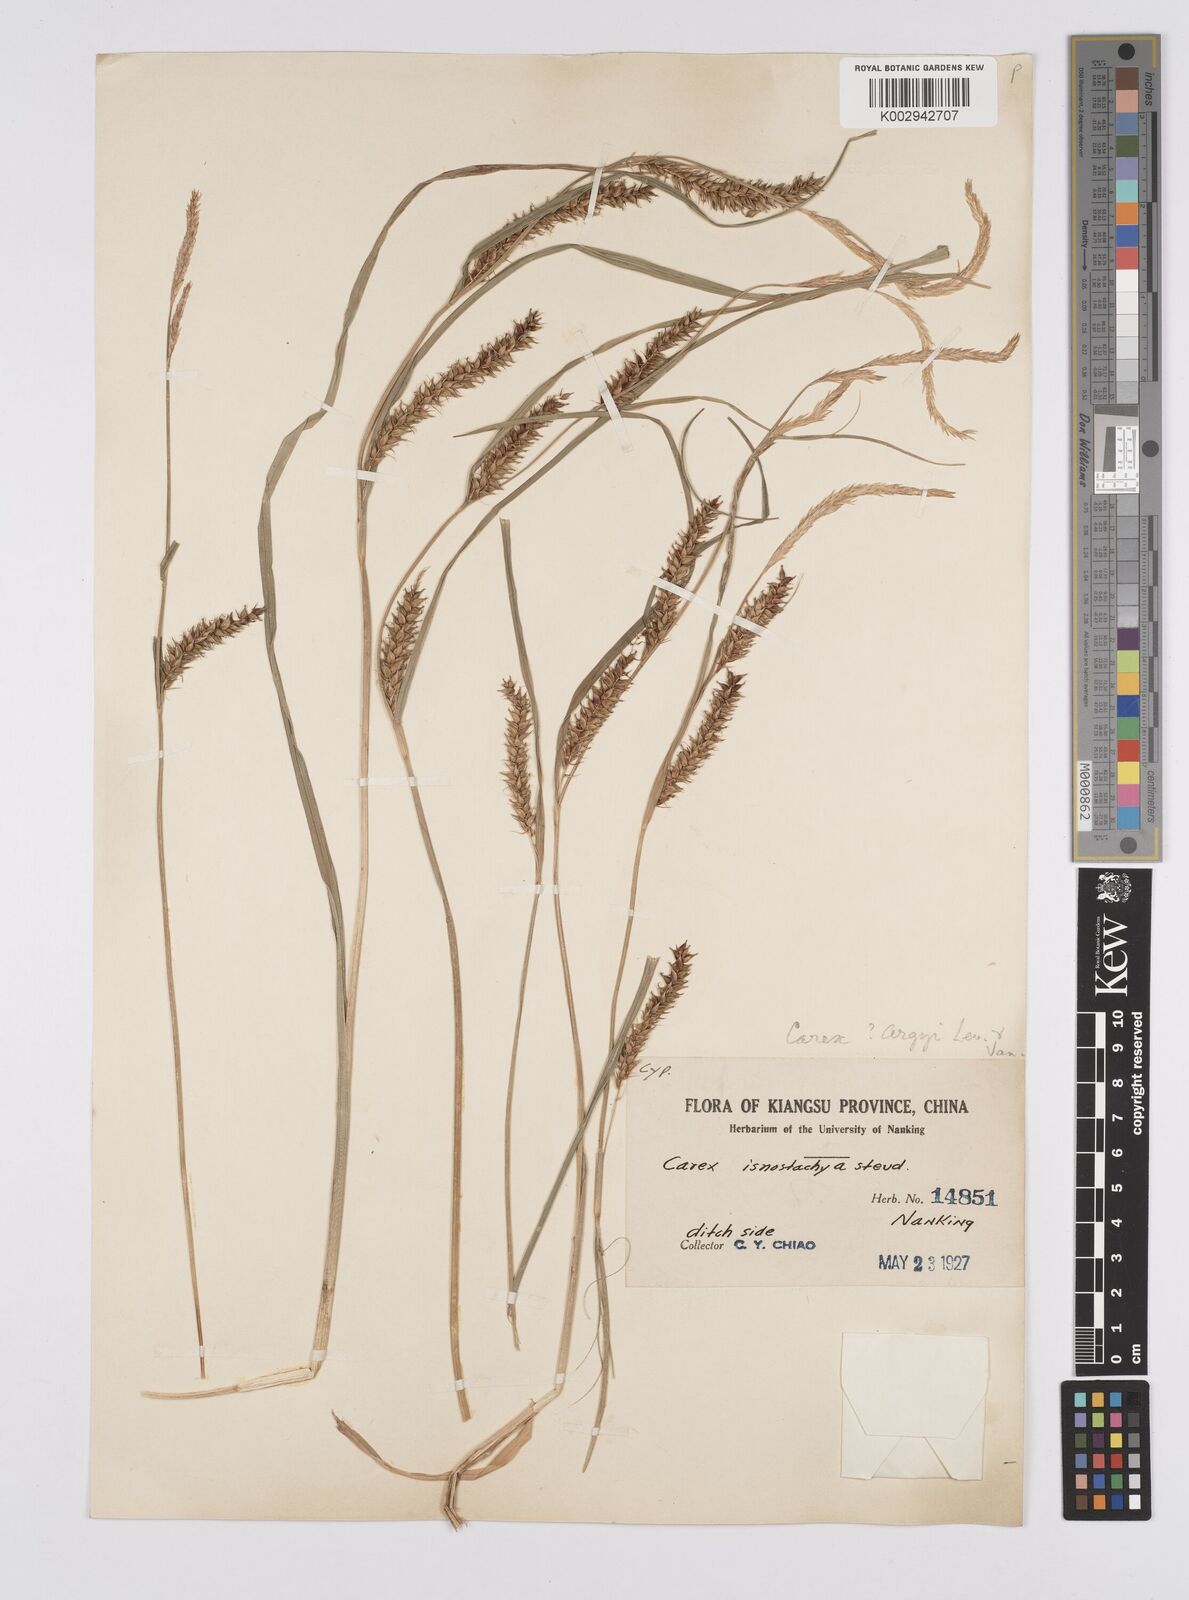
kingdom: Plantae
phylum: Tracheophyta
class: Liliopsida
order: Poales
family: Cyperaceae
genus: Carex
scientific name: Carex argyi
